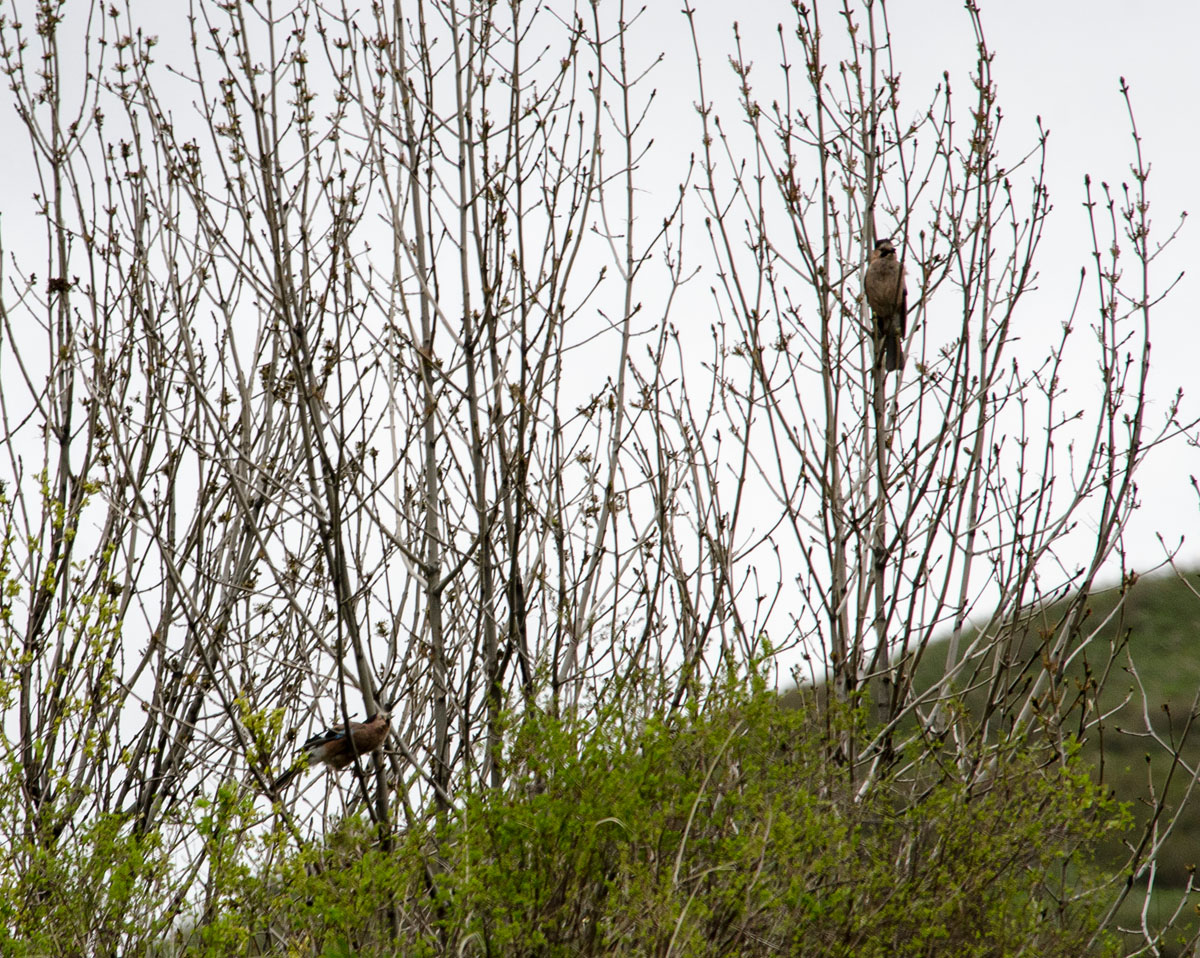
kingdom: Animalia
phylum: Chordata
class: Aves
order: Passeriformes
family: Corvidae
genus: Garrulus
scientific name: Garrulus glandarius
